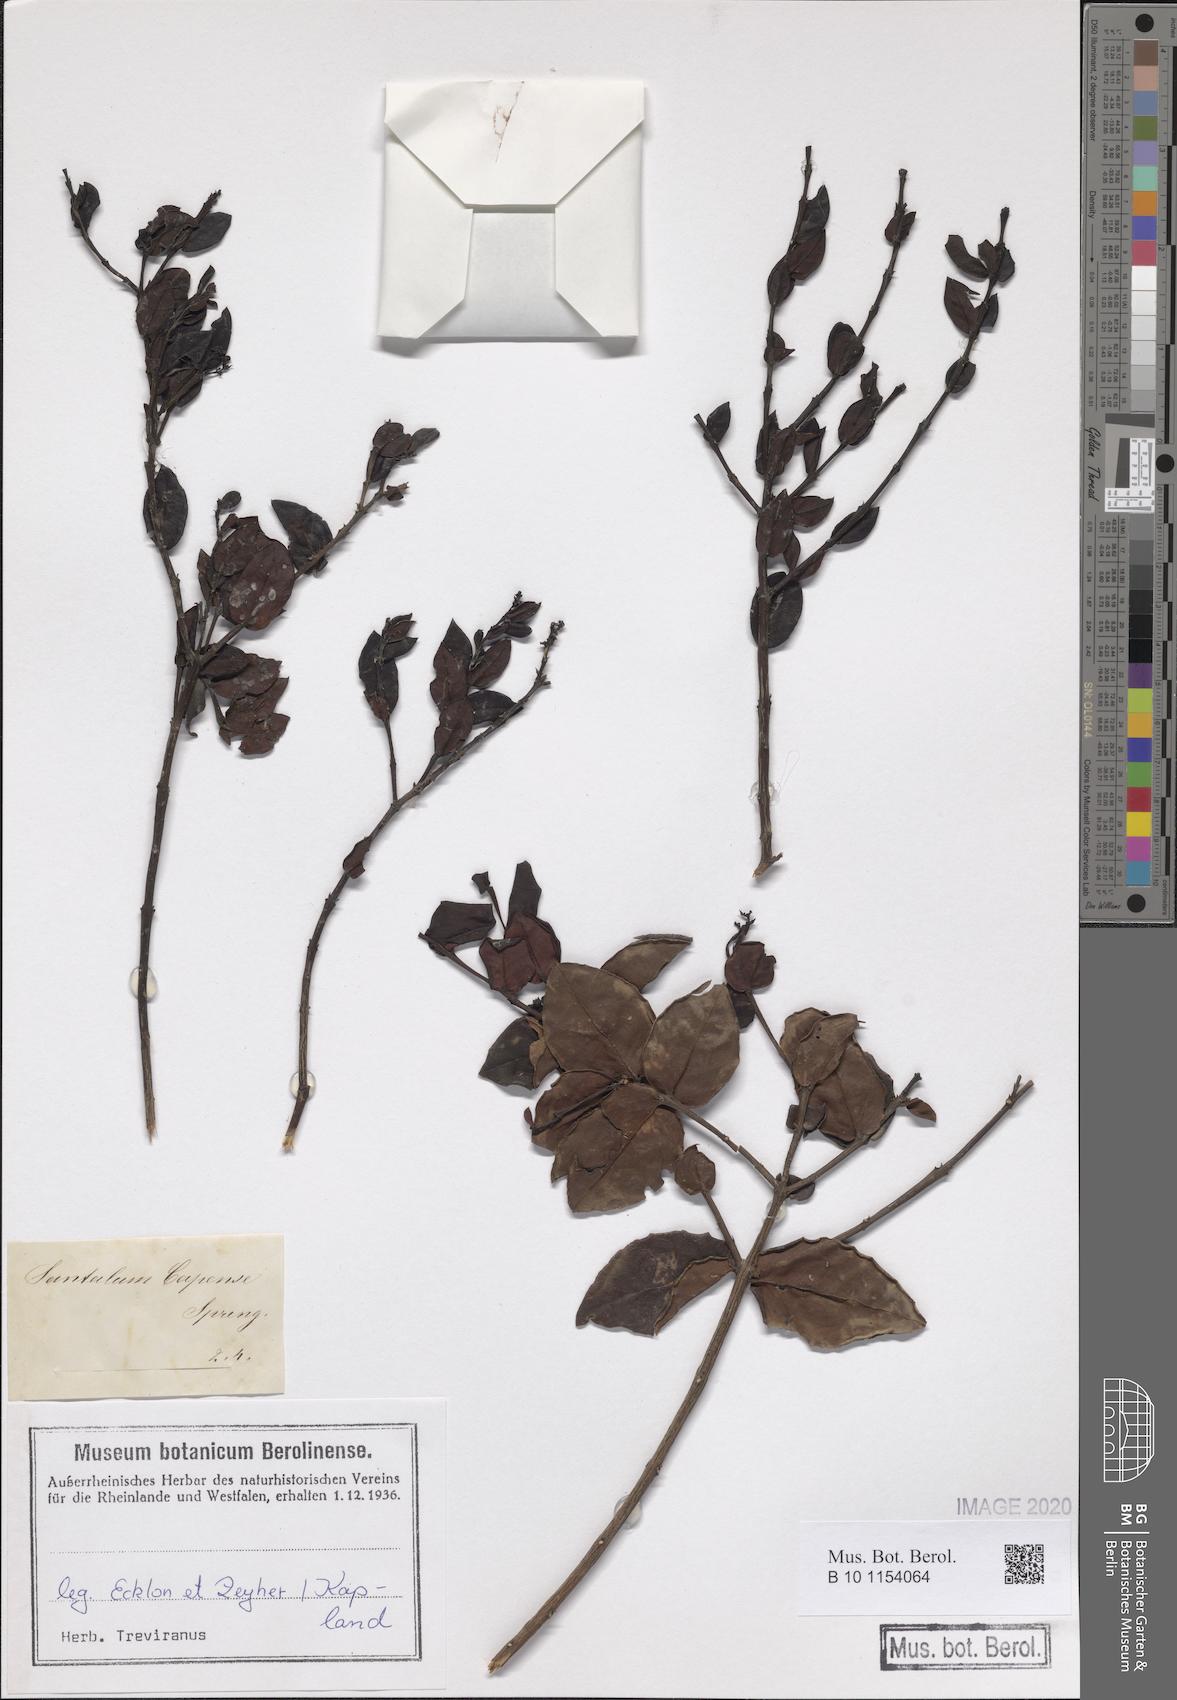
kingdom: Plantae
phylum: Tracheophyta
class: Magnoliopsida
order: Santalales
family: Santalaceae
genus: Rhoiacarpos
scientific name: Rhoiacarpos capensis
